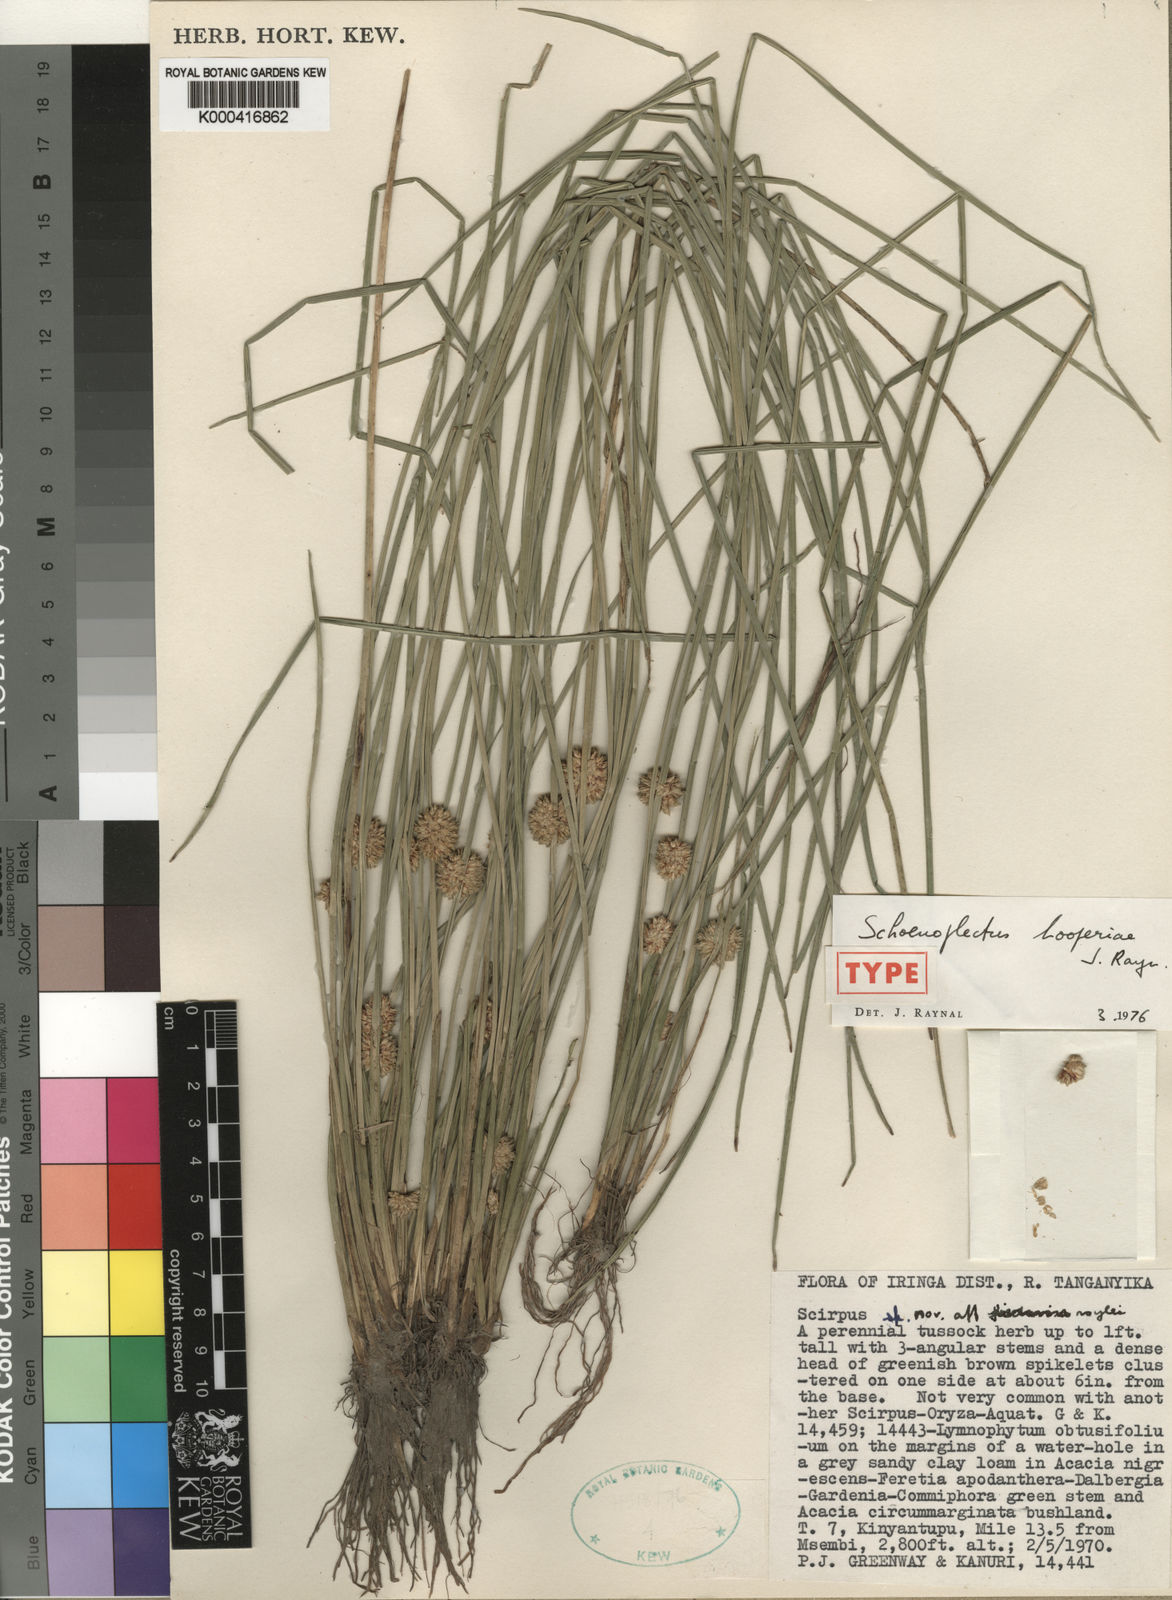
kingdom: Plantae
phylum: Tracheophyta
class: Liliopsida
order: Poales
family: Cyperaceae
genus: Schoenoplectiella
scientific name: Schoenoplectiella hooperae
